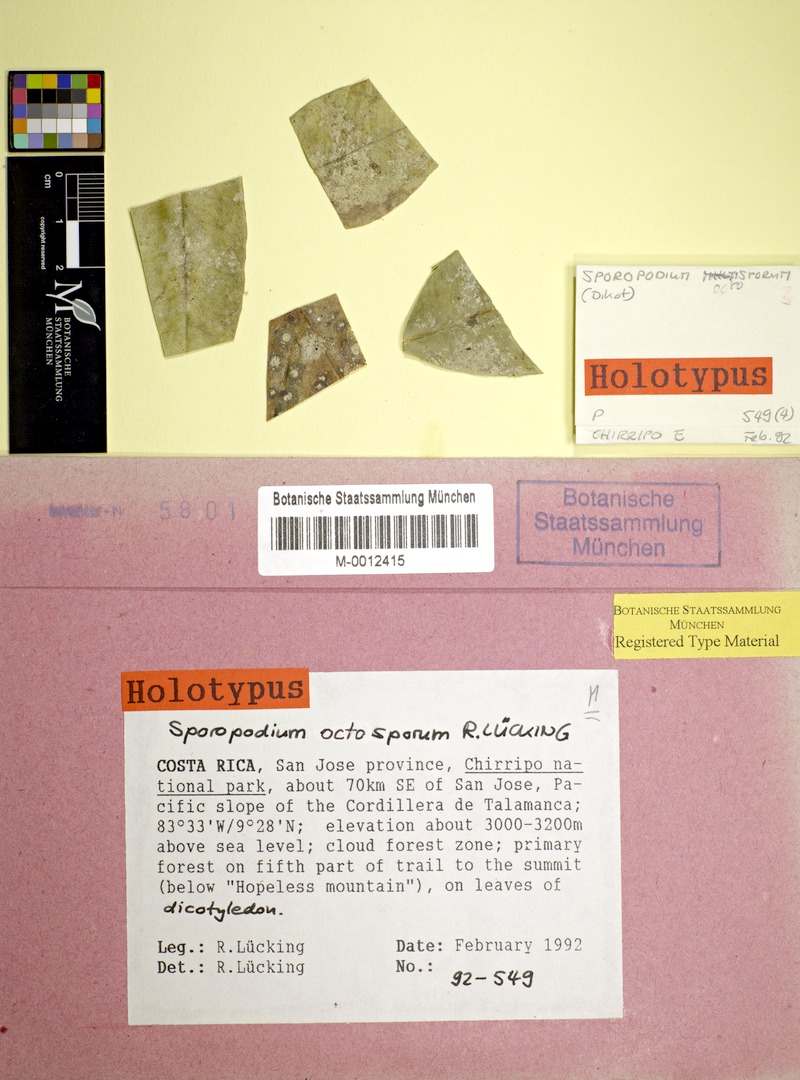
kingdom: Fungi
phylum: Ascomycota
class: Lecanoromycetes
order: Lecanorales
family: Byssolomataceae
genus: Sporopodium
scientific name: Sporopodium
